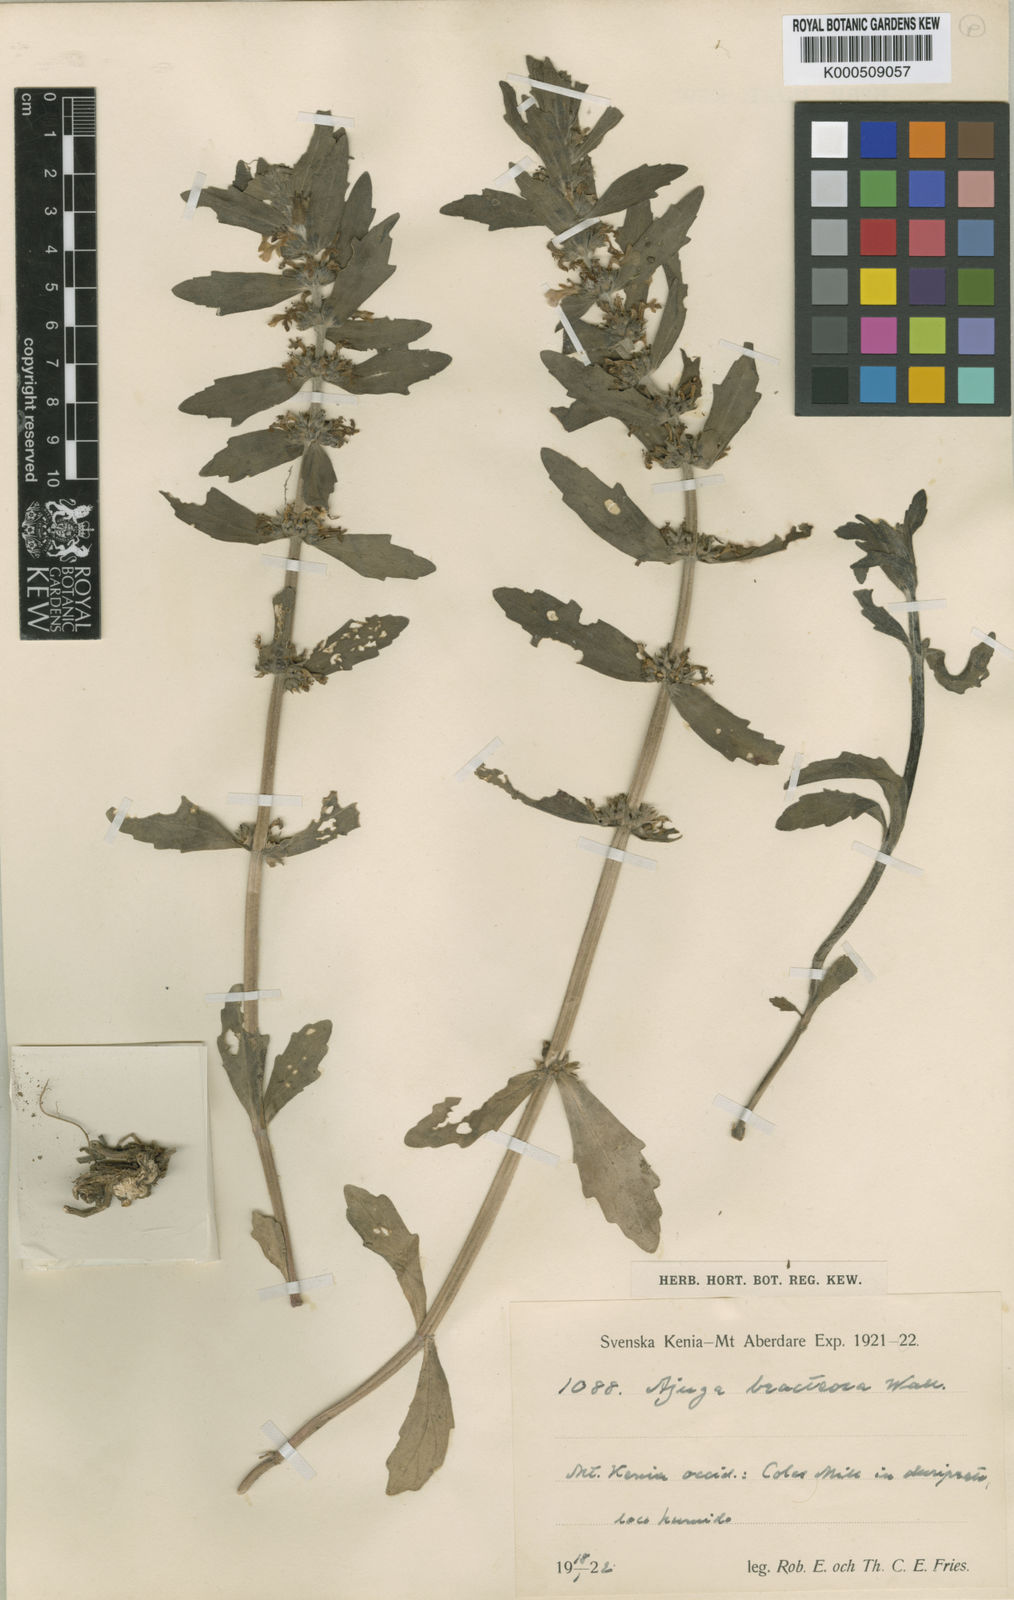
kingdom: Plantae
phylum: Tracheophyta
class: Magnoliopsida
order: Lamiales
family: Lamiaceae
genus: Ajuga
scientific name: Ajuga
